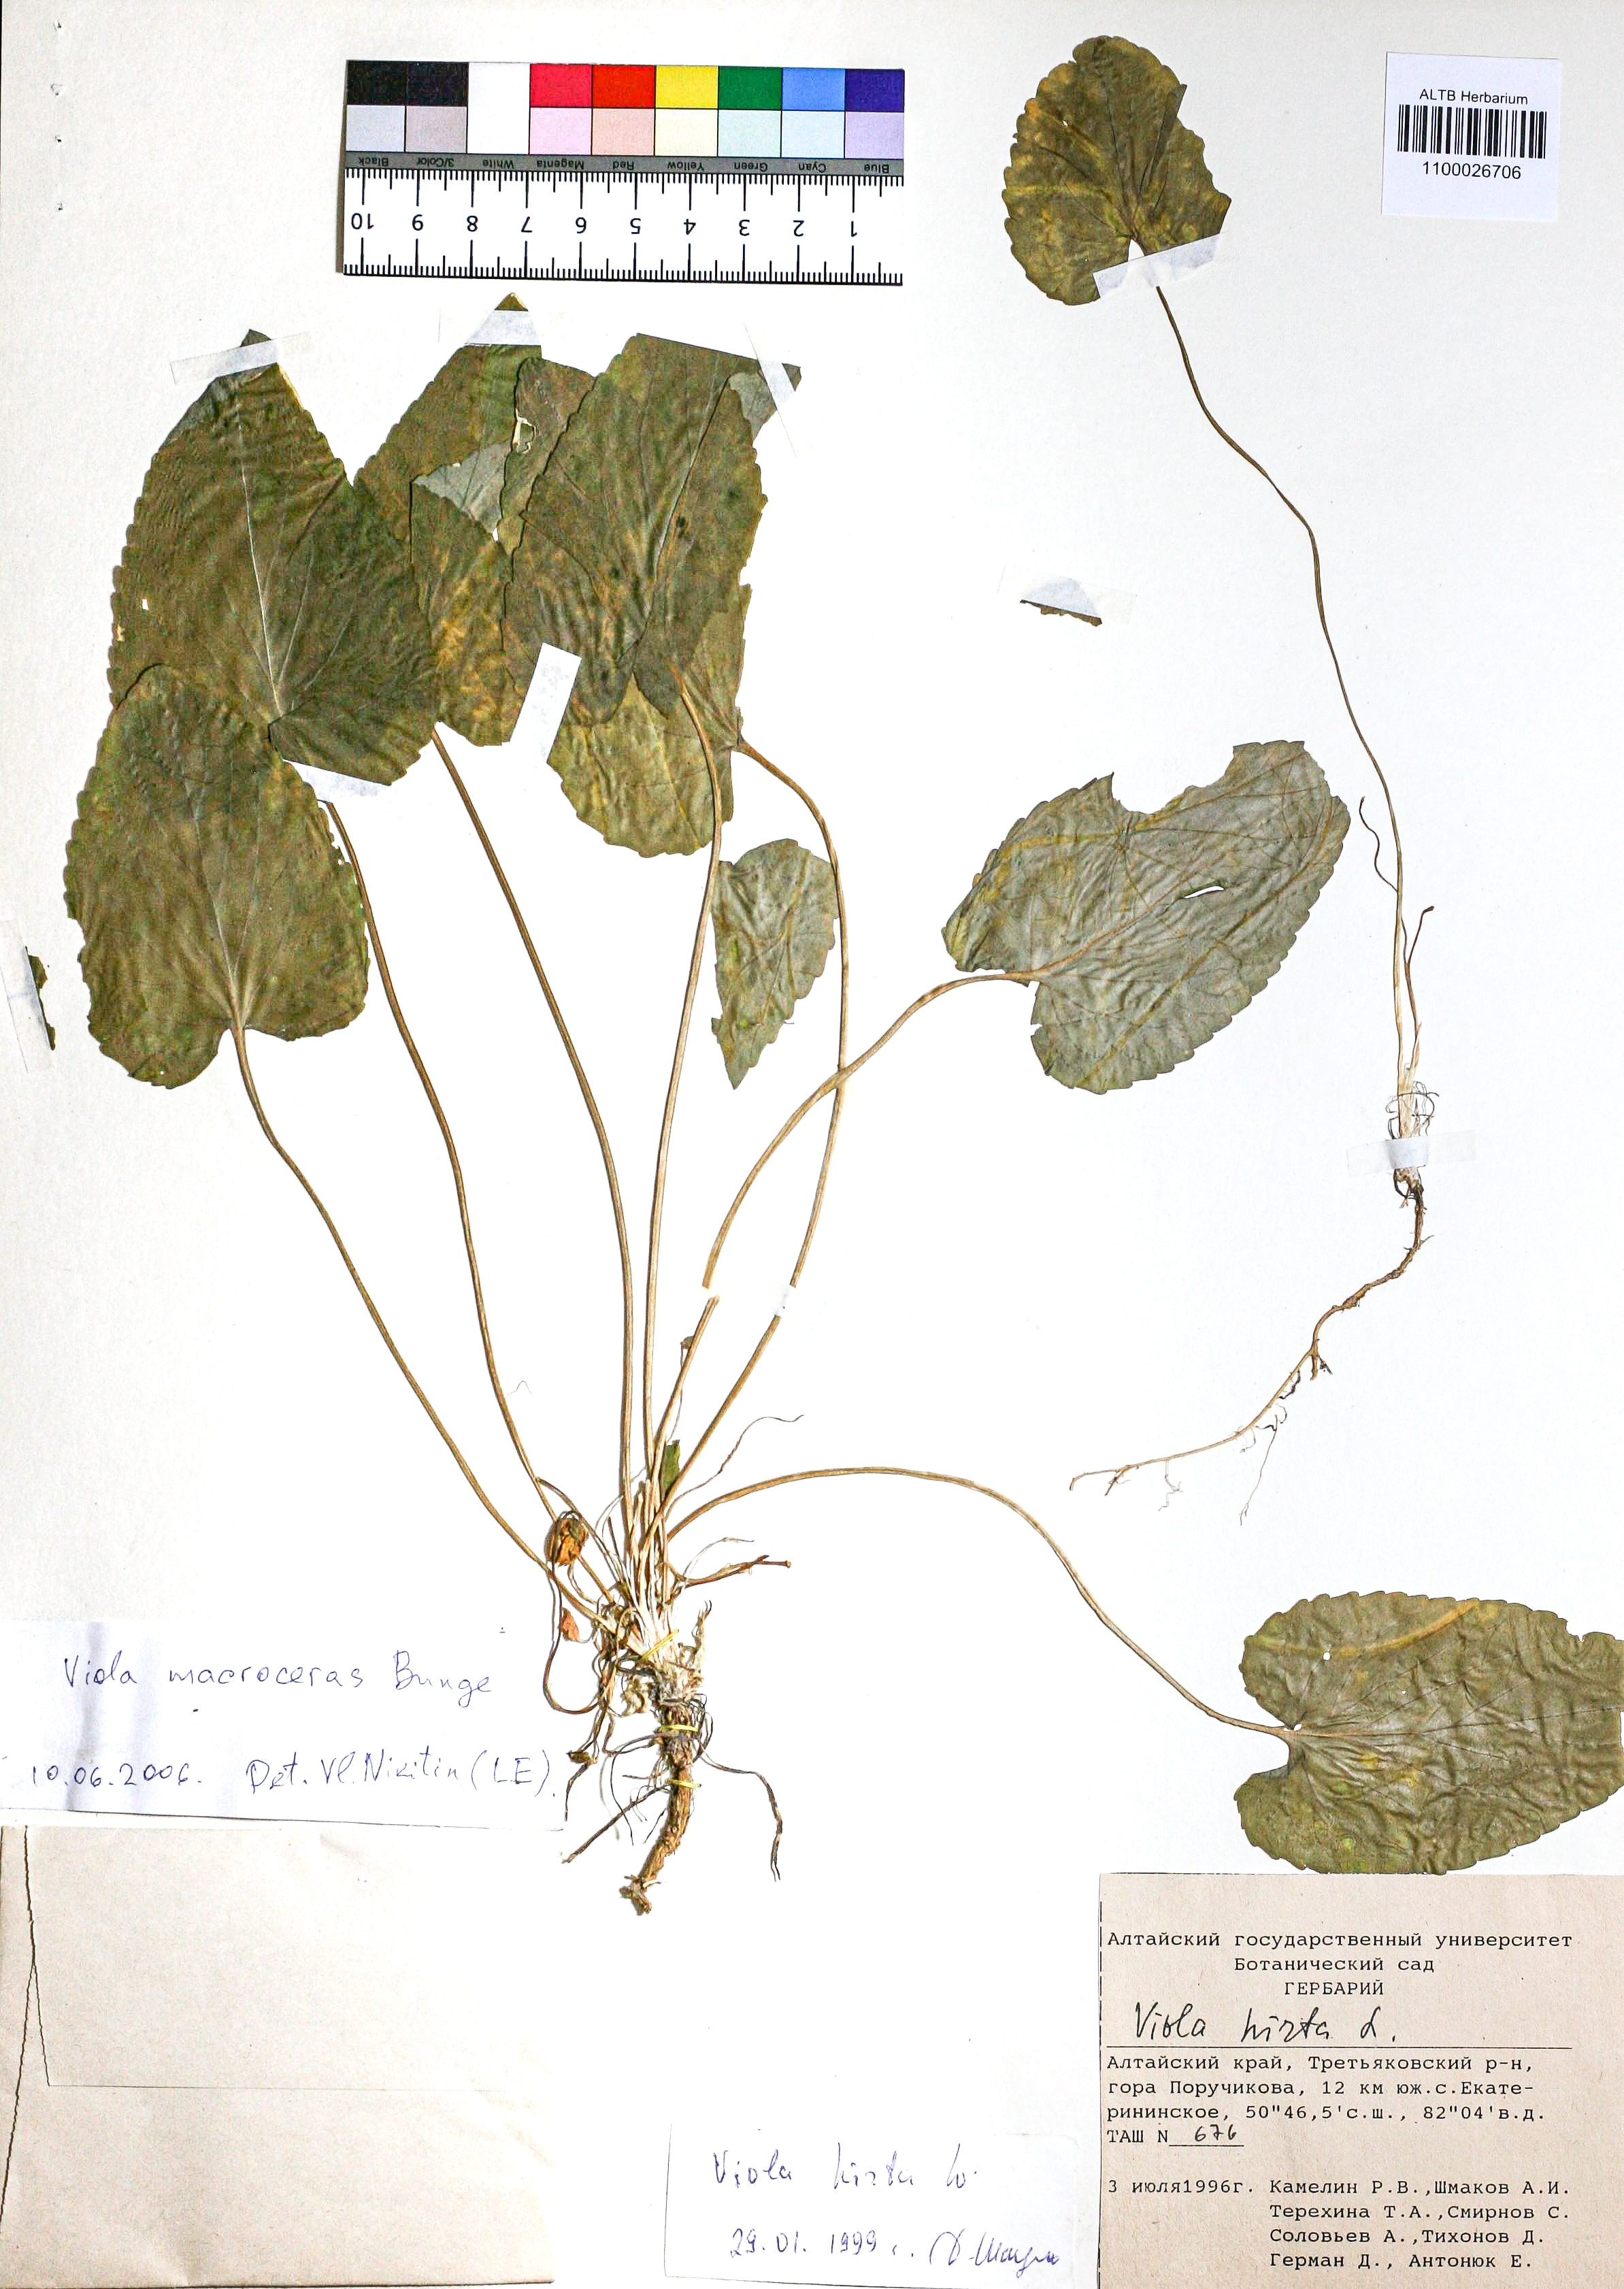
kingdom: Plantae
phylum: Tracheophyta
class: Magnoliopsida
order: Malpighiales
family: Violaceae
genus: Viola
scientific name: Viola macroceras
